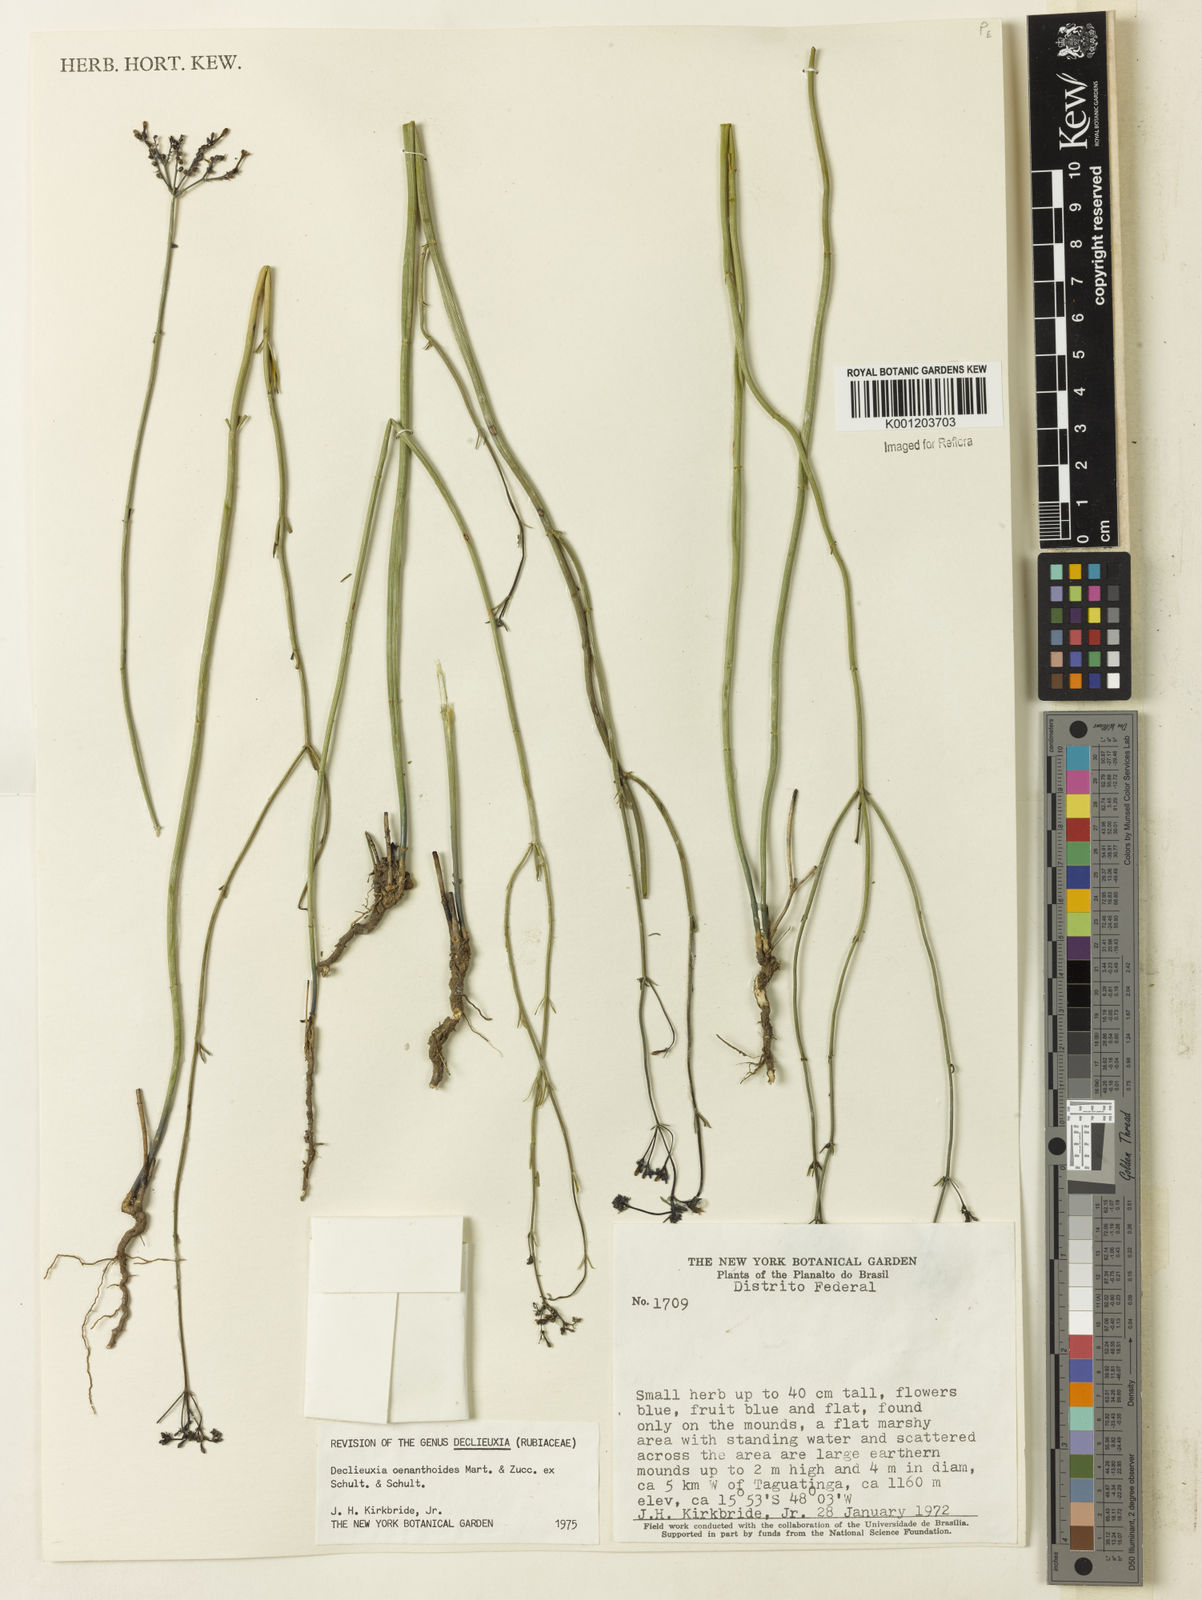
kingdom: Plantae
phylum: Tracheophyta
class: Magnoliopsida
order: Gentianales
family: Rubiaceae
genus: Declieuxia
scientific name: Declieuxia
